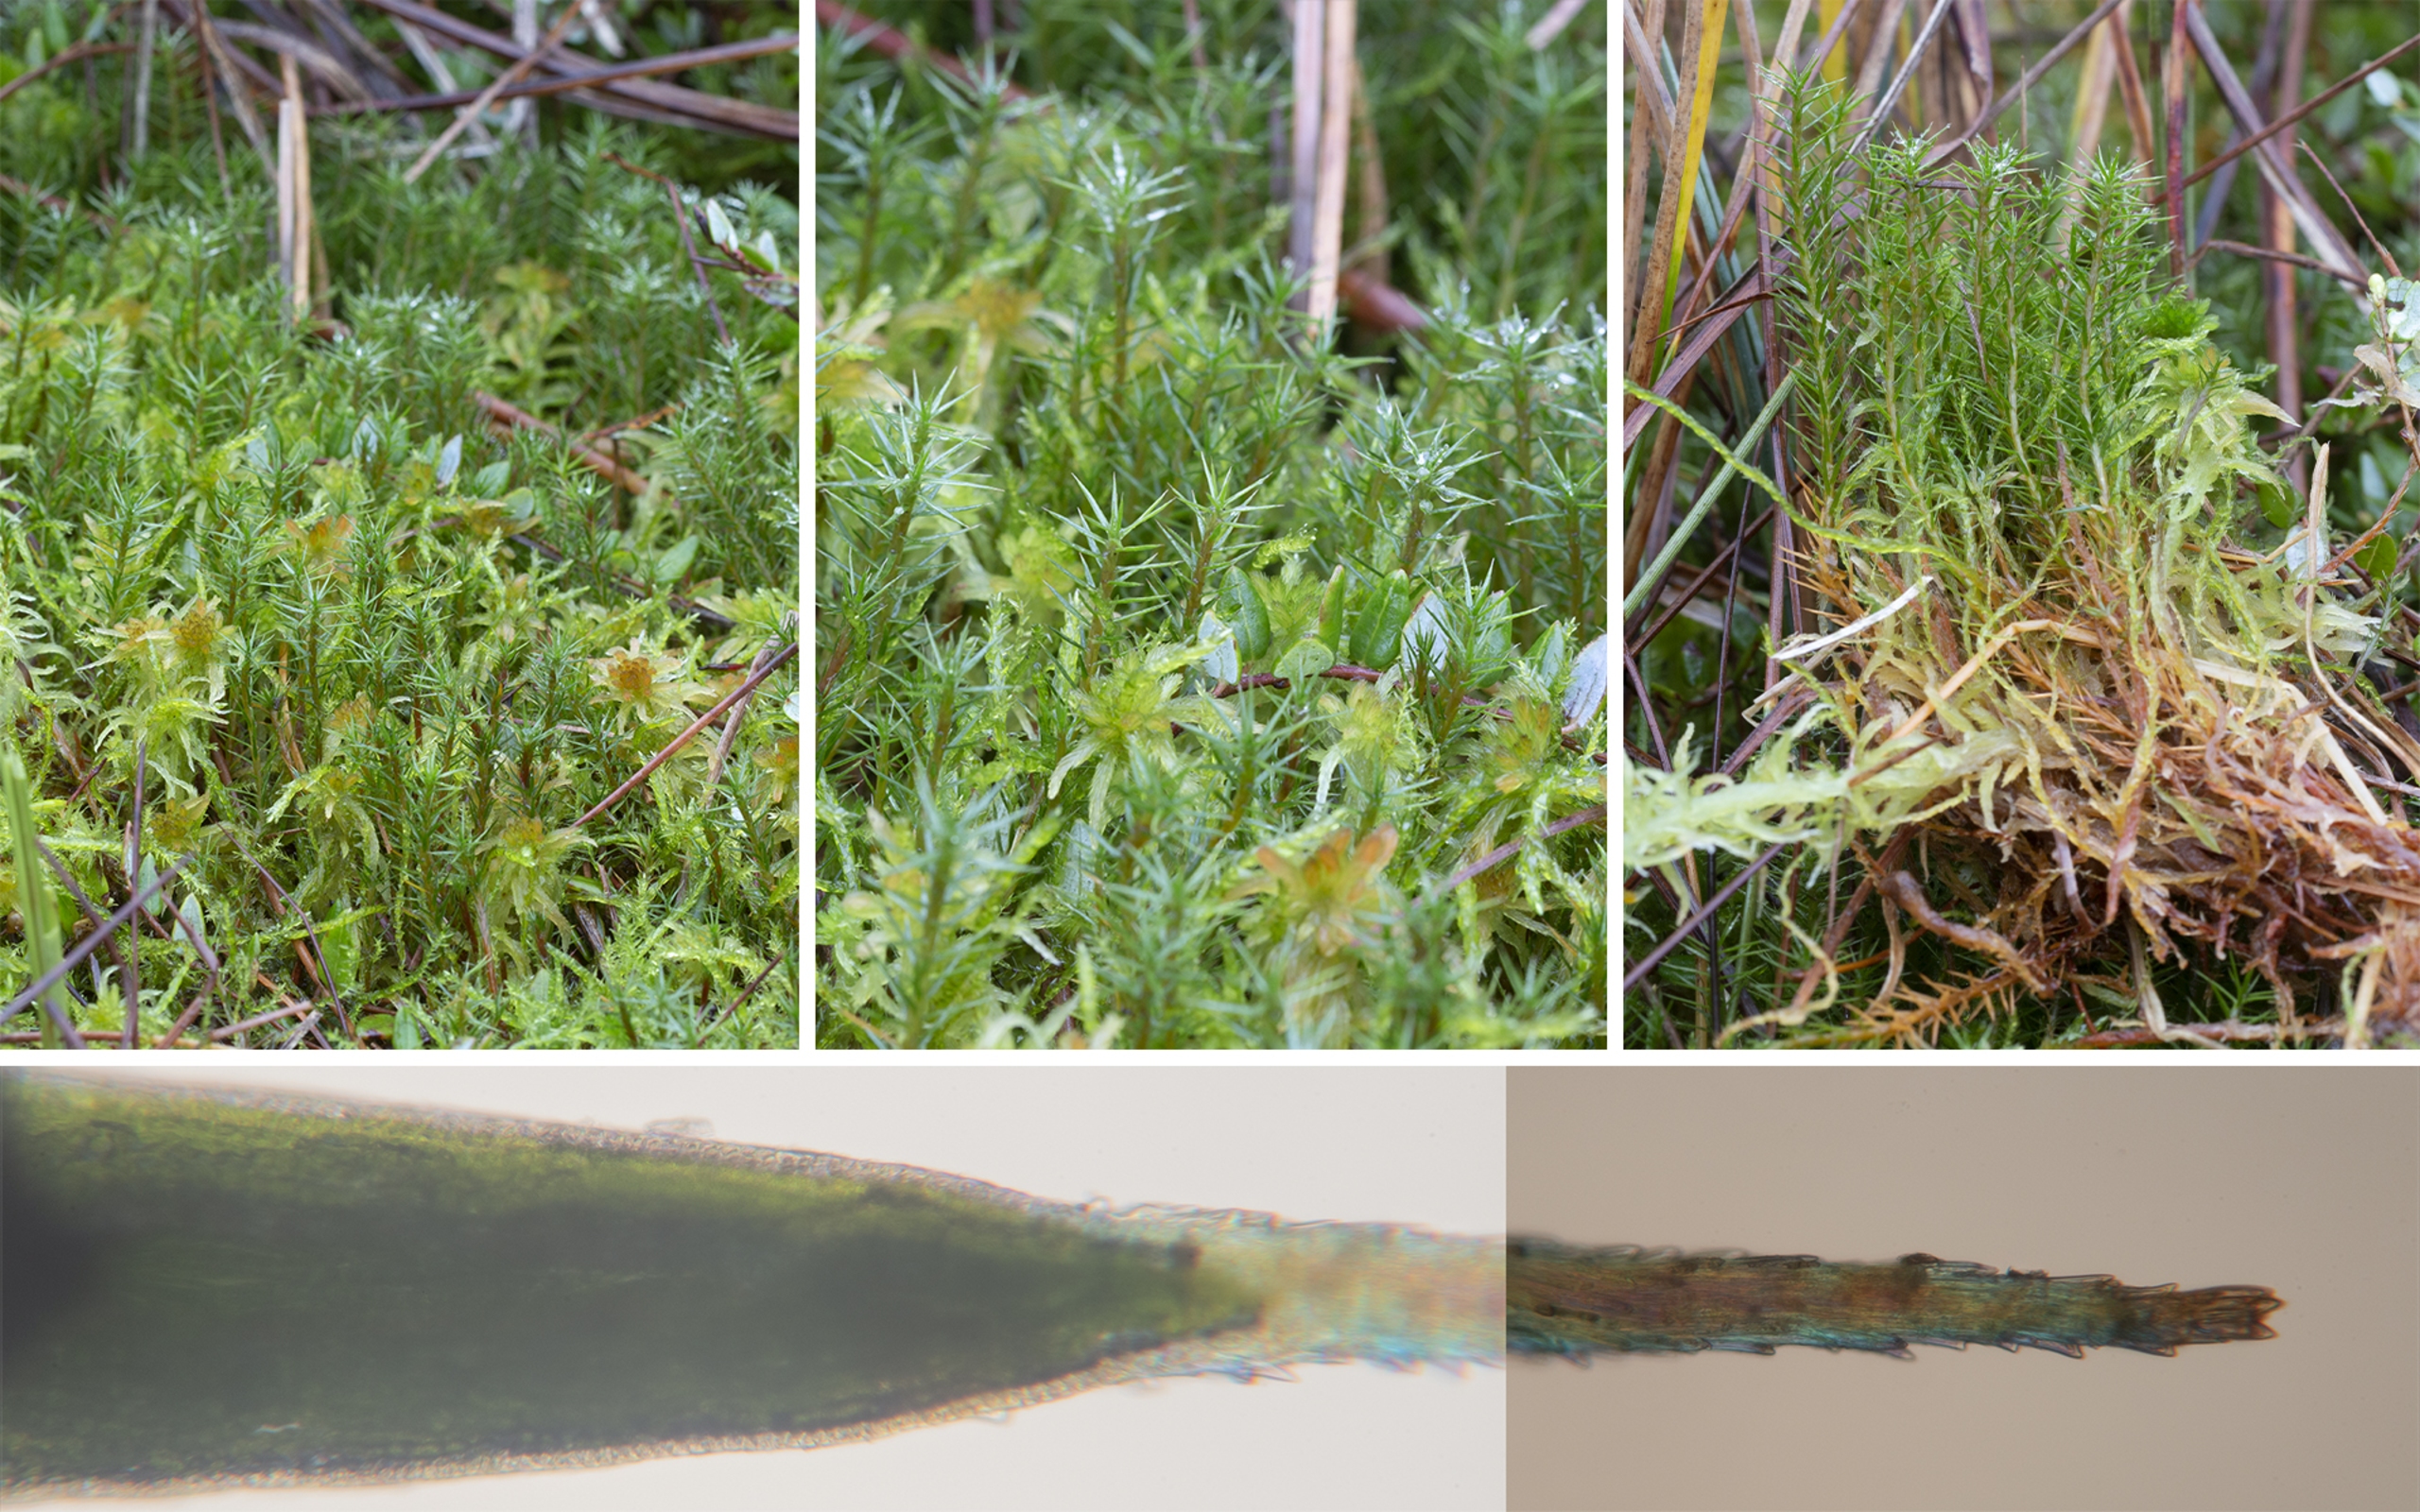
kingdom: Plantae
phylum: Bryophyta
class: Polytrichopsida
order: Polytrichales
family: Polytrichaceae
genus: Polytrichum
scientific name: Polytrichum strictum
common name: Filtstænglet jomfruhår
